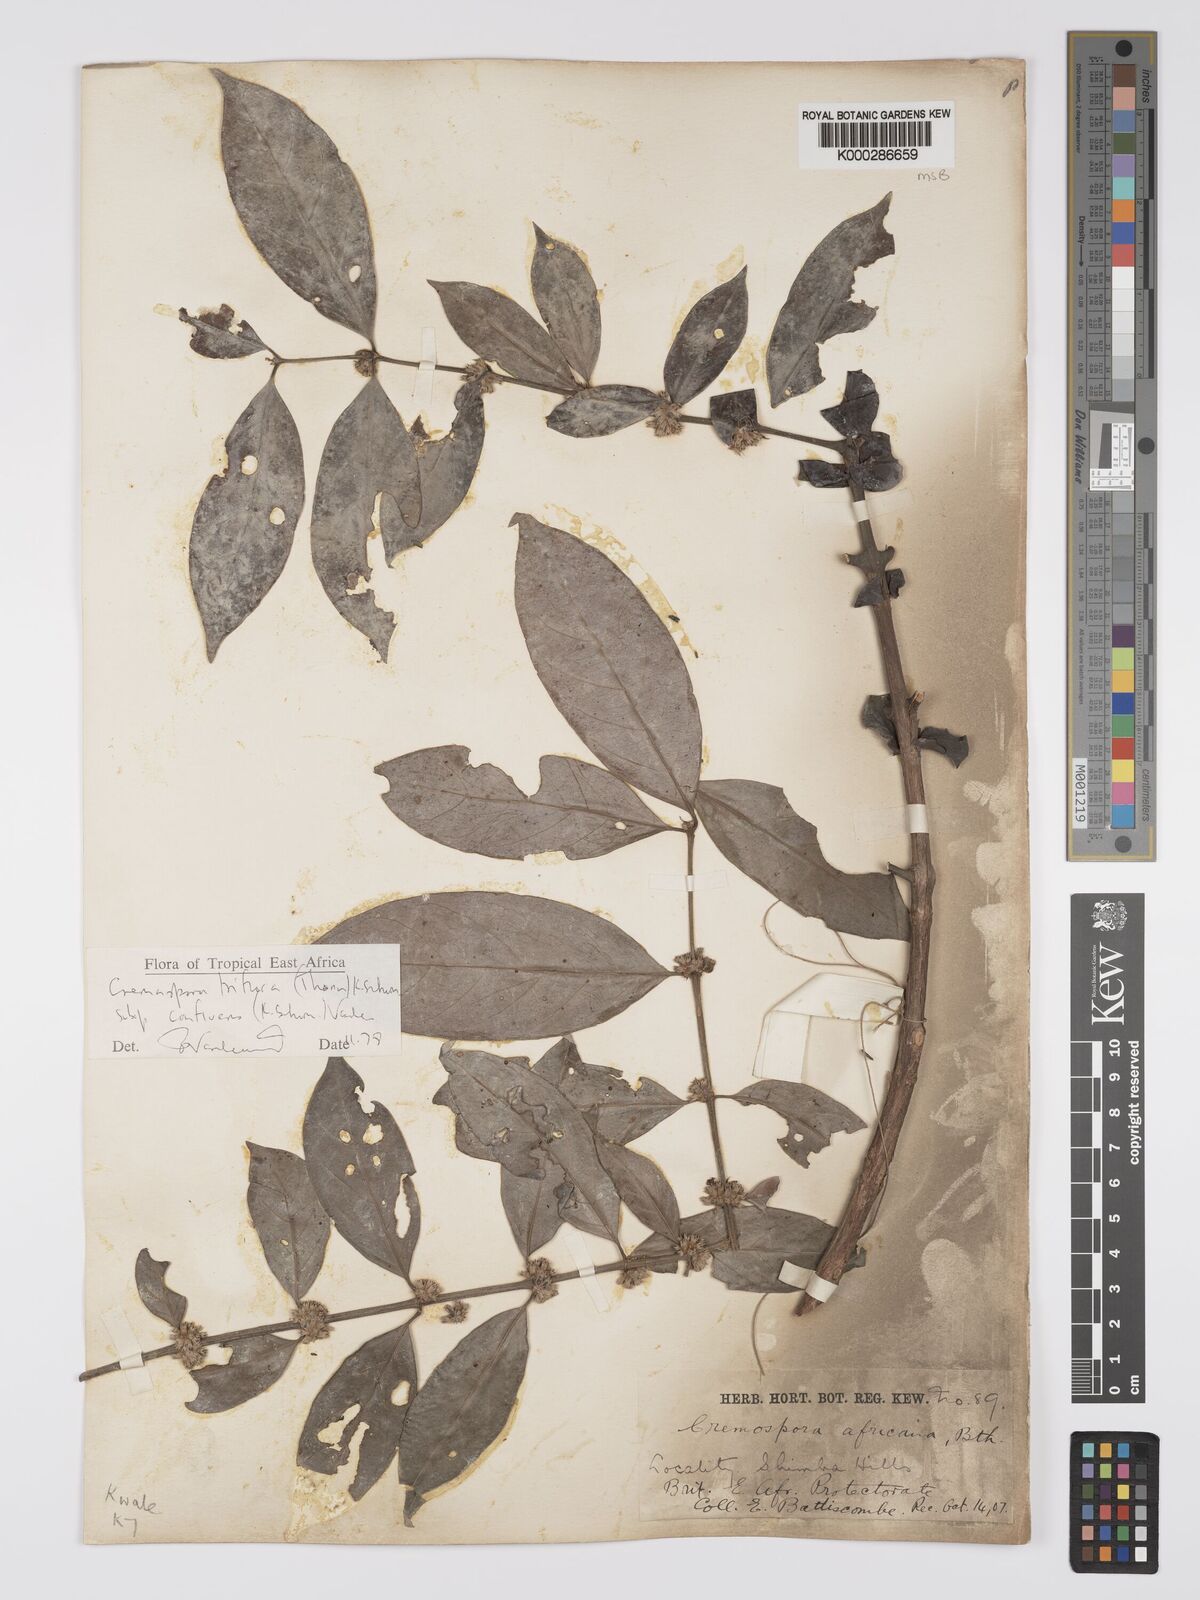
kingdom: Plantae
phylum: Tracheophyta
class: Magnoliopsida
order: Gentianales
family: Rubiaceae
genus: Cremaspora
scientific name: Cremaspora triflora
